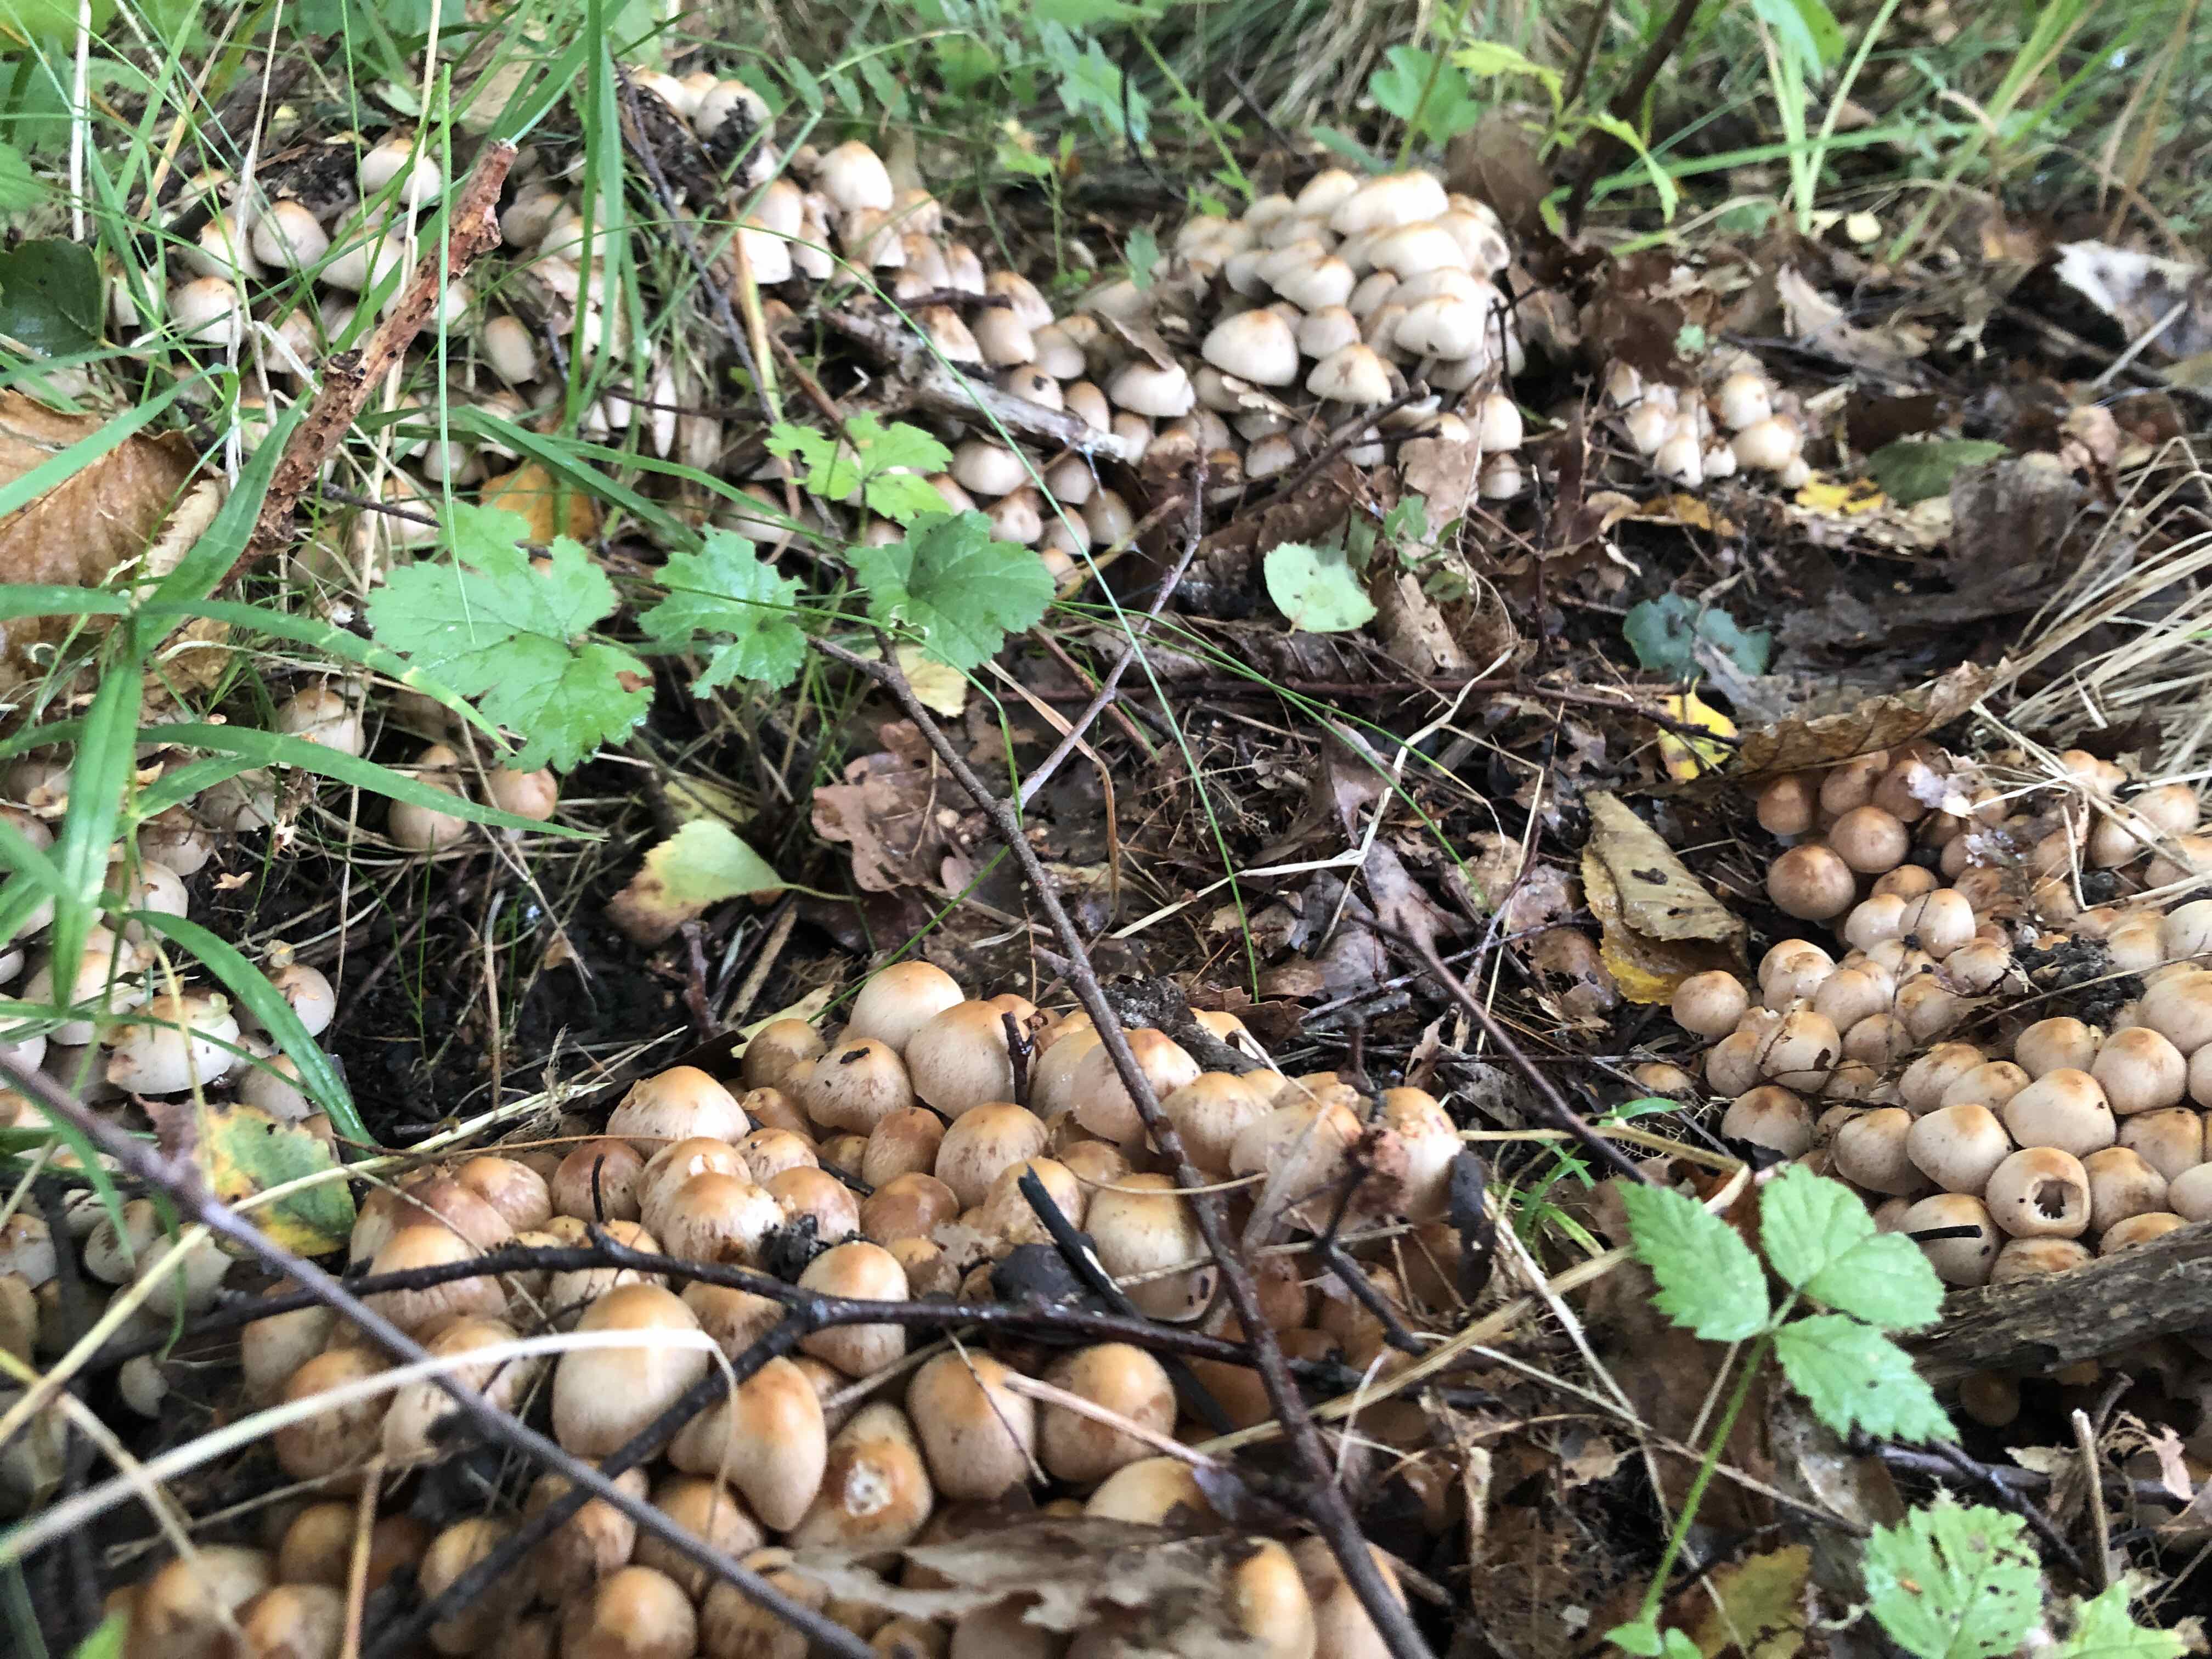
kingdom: Fungi
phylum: Basidiomycota
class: Agaricomycetes
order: Agaricales
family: Psathyrellaceae
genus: Britzelmayria
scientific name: Britzelmayria multipedata
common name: knippe-mørkhat
